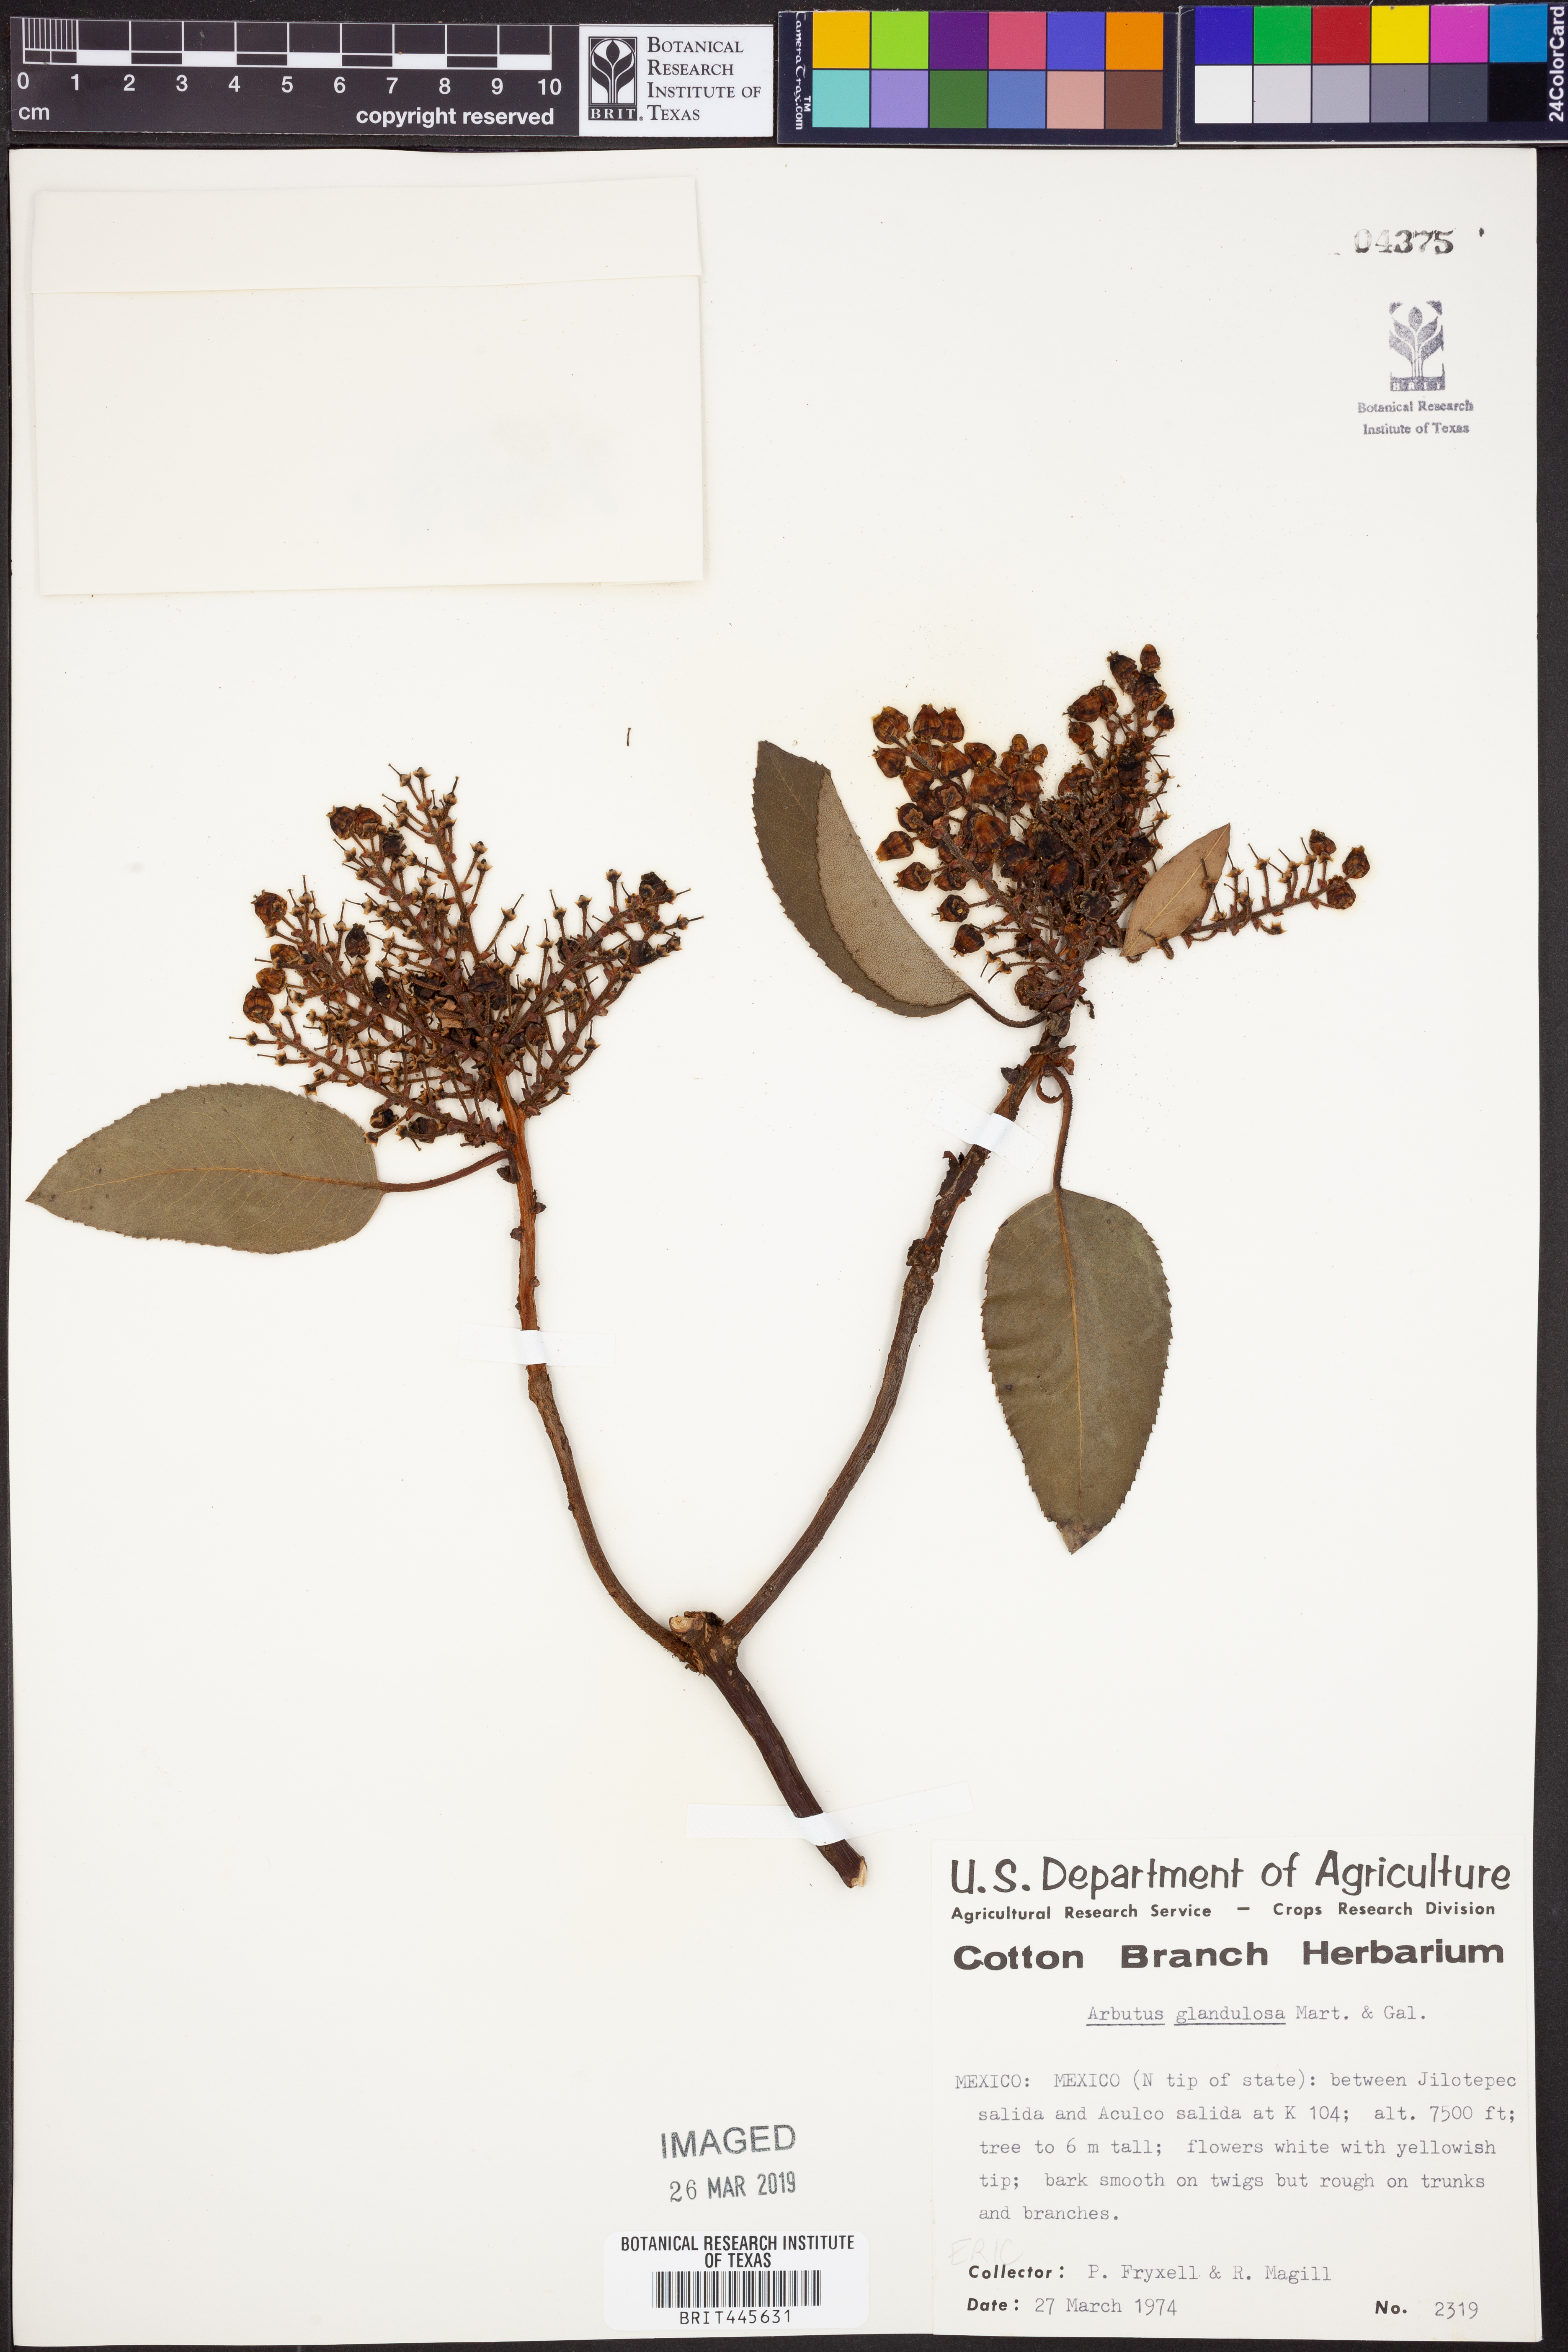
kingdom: Plantae
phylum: Tracheophyta
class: Magnoliopsida
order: Ericales
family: Ericaceae
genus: Arbutus
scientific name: Arbutus xalapensis
